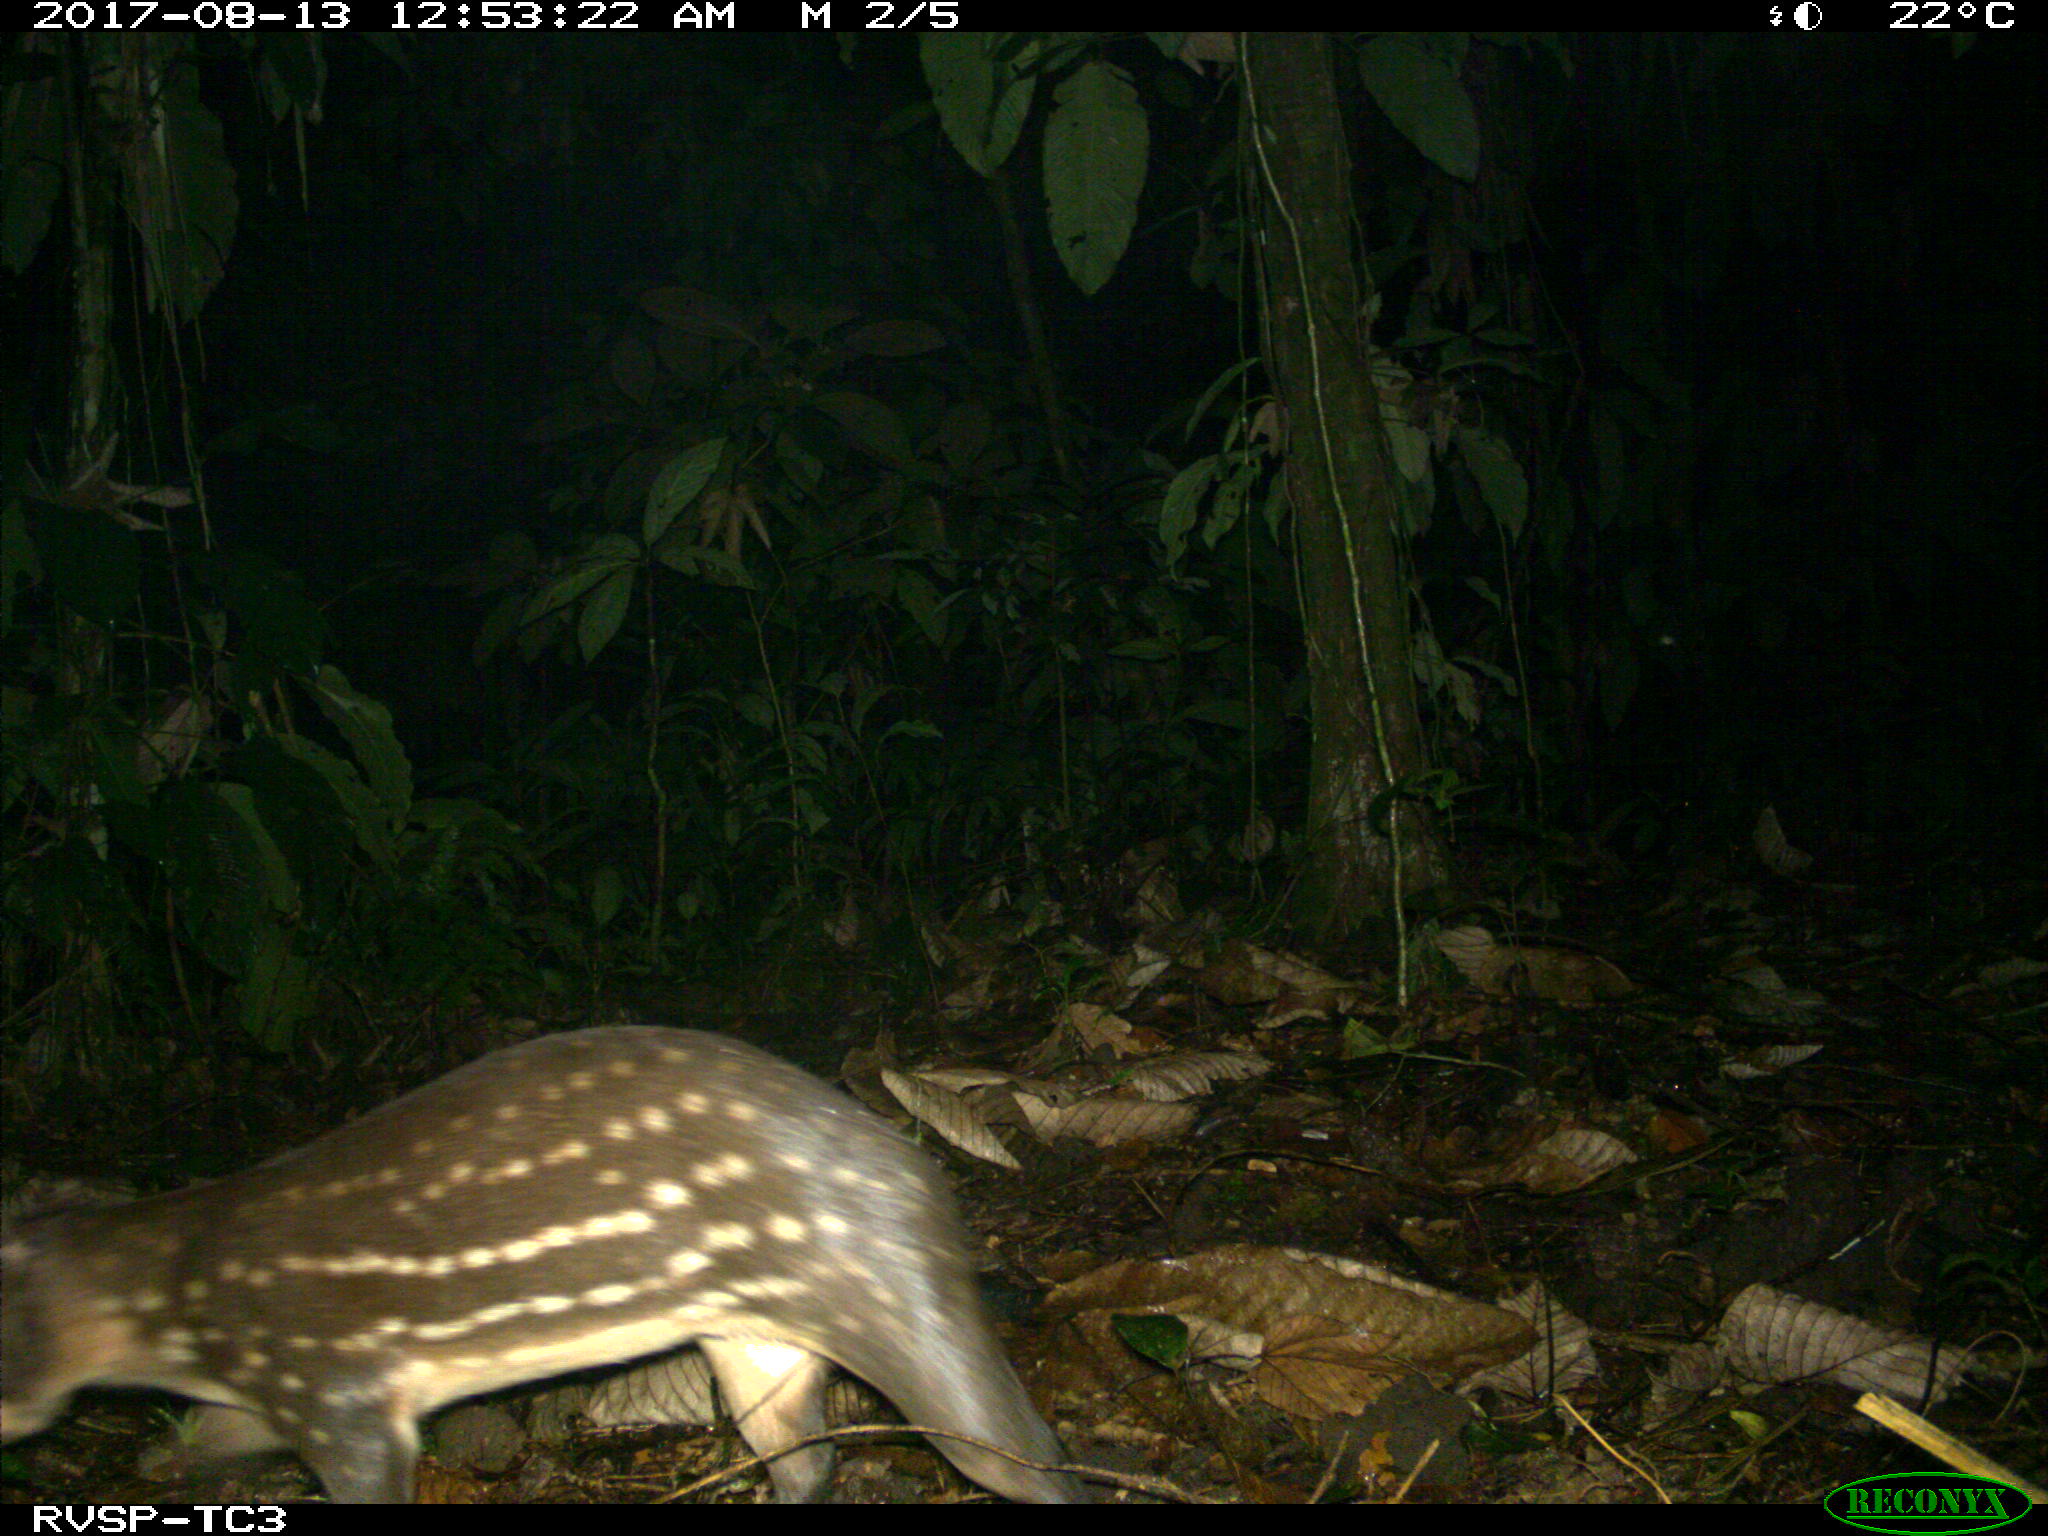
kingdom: Animalia
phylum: Chordata
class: Mammalia
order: Rodentia
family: Cuniculidae
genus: Cuniculus
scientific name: Cuniculus paca
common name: Lowland paca
